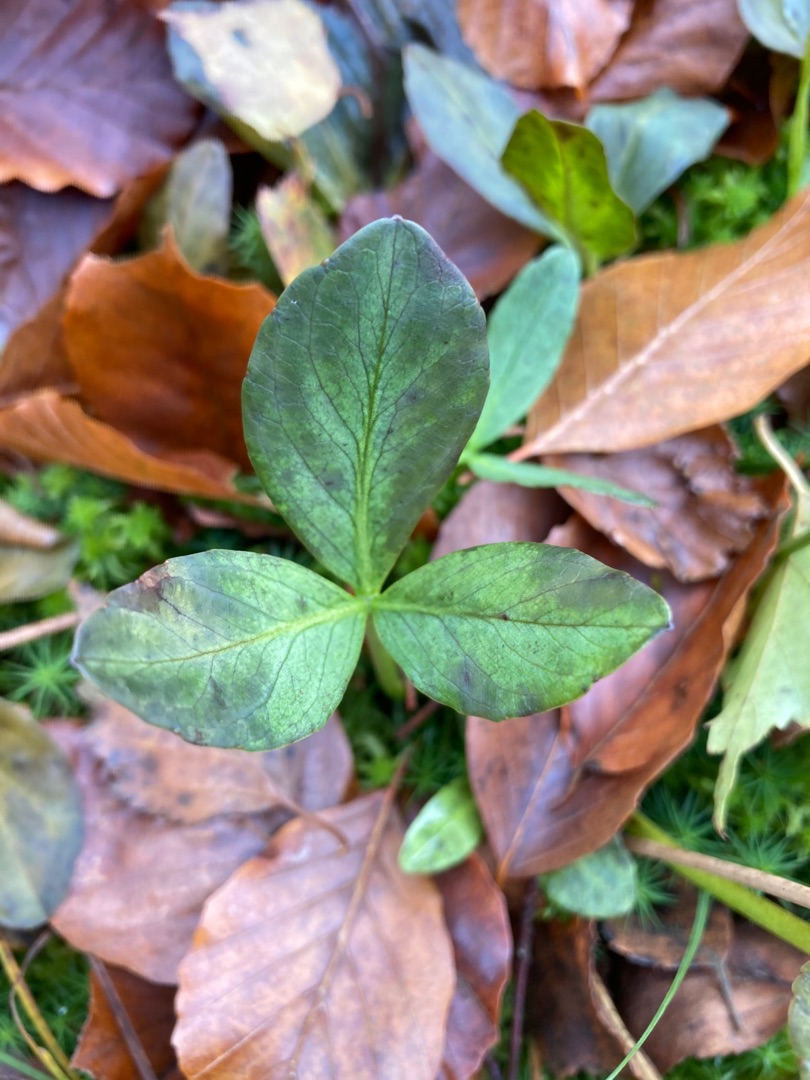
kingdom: Plantae
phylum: Tracheophyta
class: Magnoliopsida
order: Asterales
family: Menyanthaceae
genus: Menyanthes
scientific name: Menyanthes trifoliata
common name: Bukkeblad
